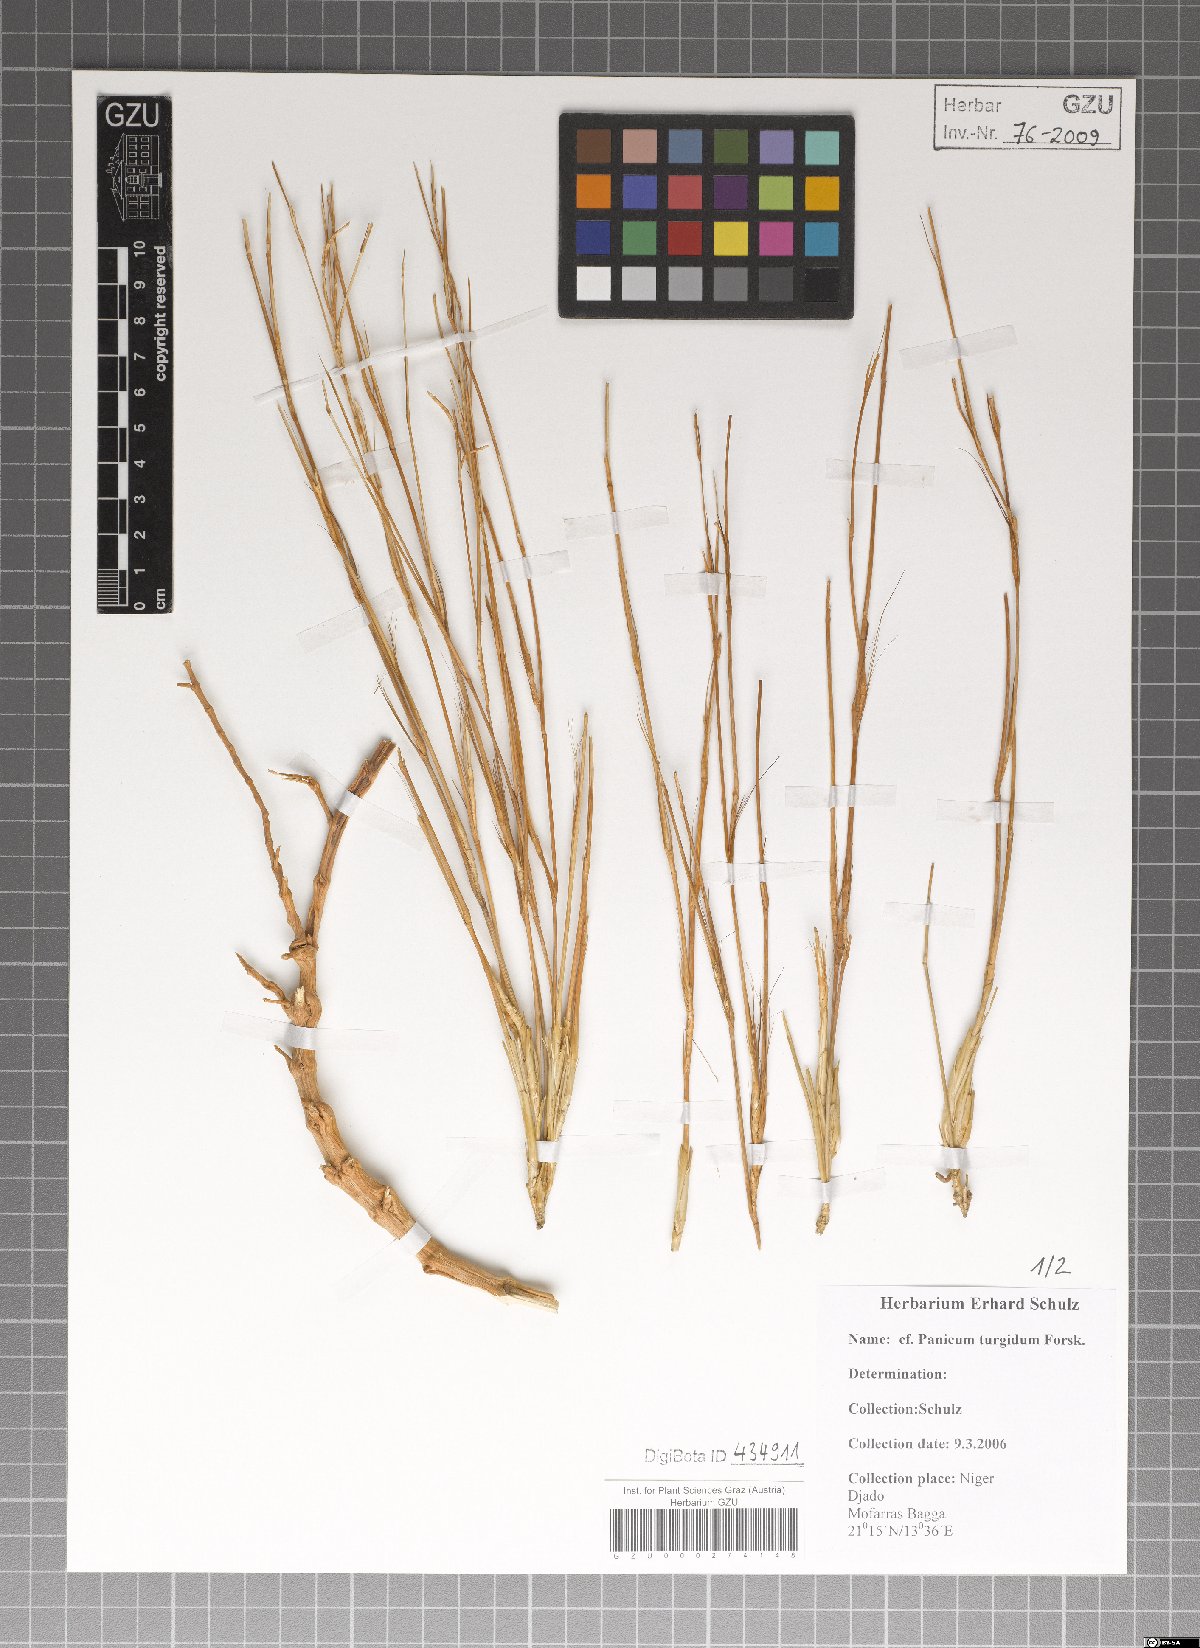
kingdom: Plantae
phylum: Tracheophyta
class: Liliopsida
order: Poales
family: Poaceae
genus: Panicum
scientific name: Panicum turgidum
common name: Desert grass
